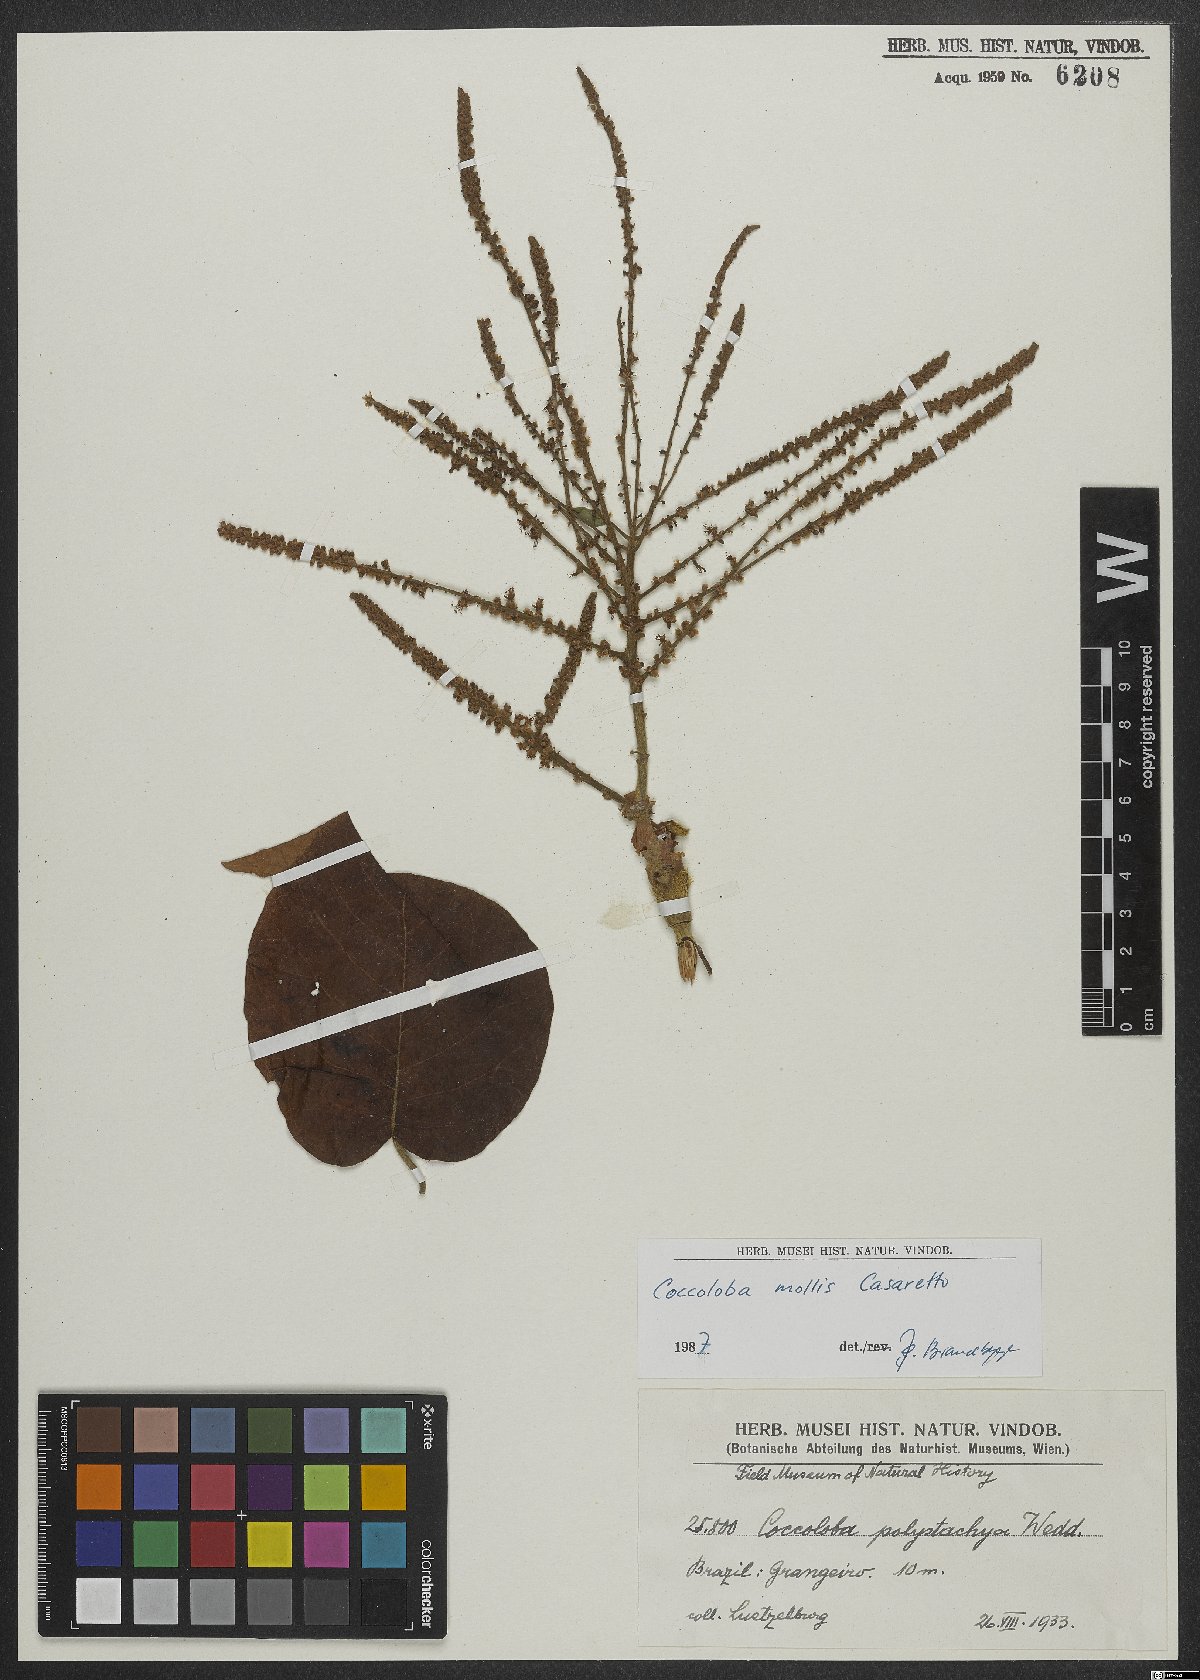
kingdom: Plantae
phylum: Tracheophyta
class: Magnoliopsida
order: Caryophyllales
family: Polygonaceae
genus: Coccoloba
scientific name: Coccoloba mollis
